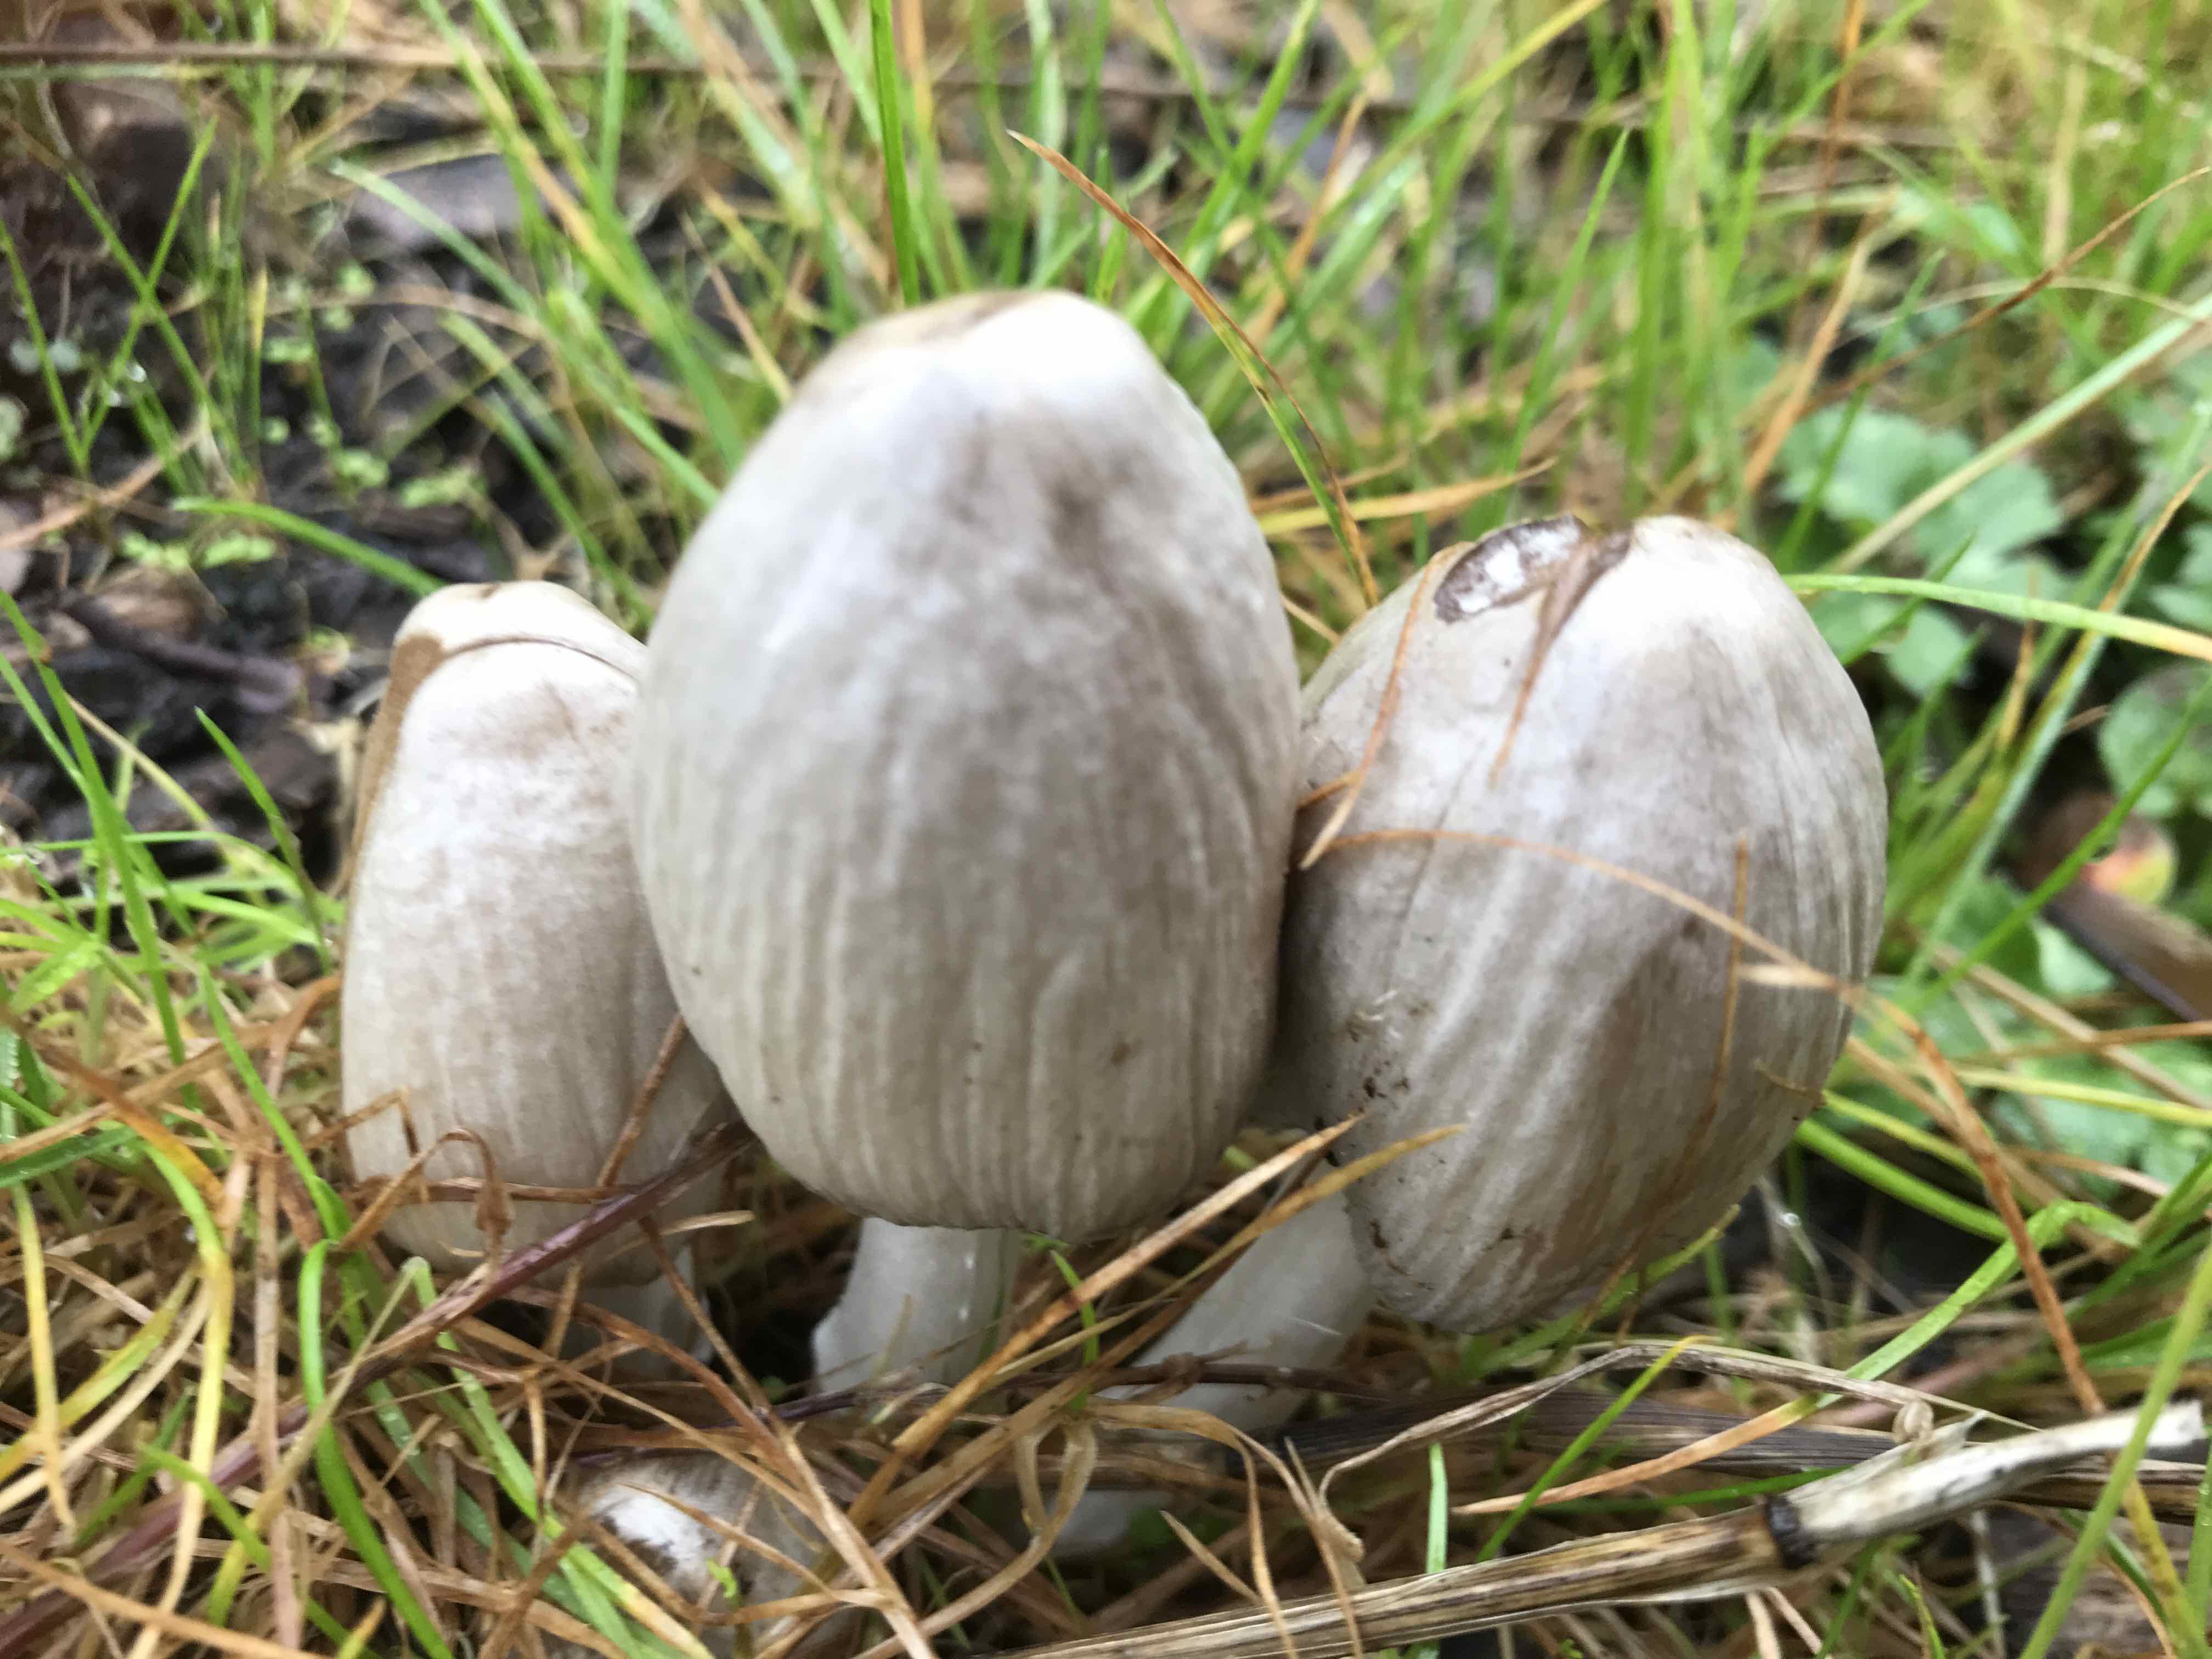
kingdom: Fungi
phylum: Basidiomycota
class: Agaricomycetes
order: Agaricales
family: Psathyrellaceae
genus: Coprinopsis
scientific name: Coprinopsis atramentaria
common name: almindelig blækhat
